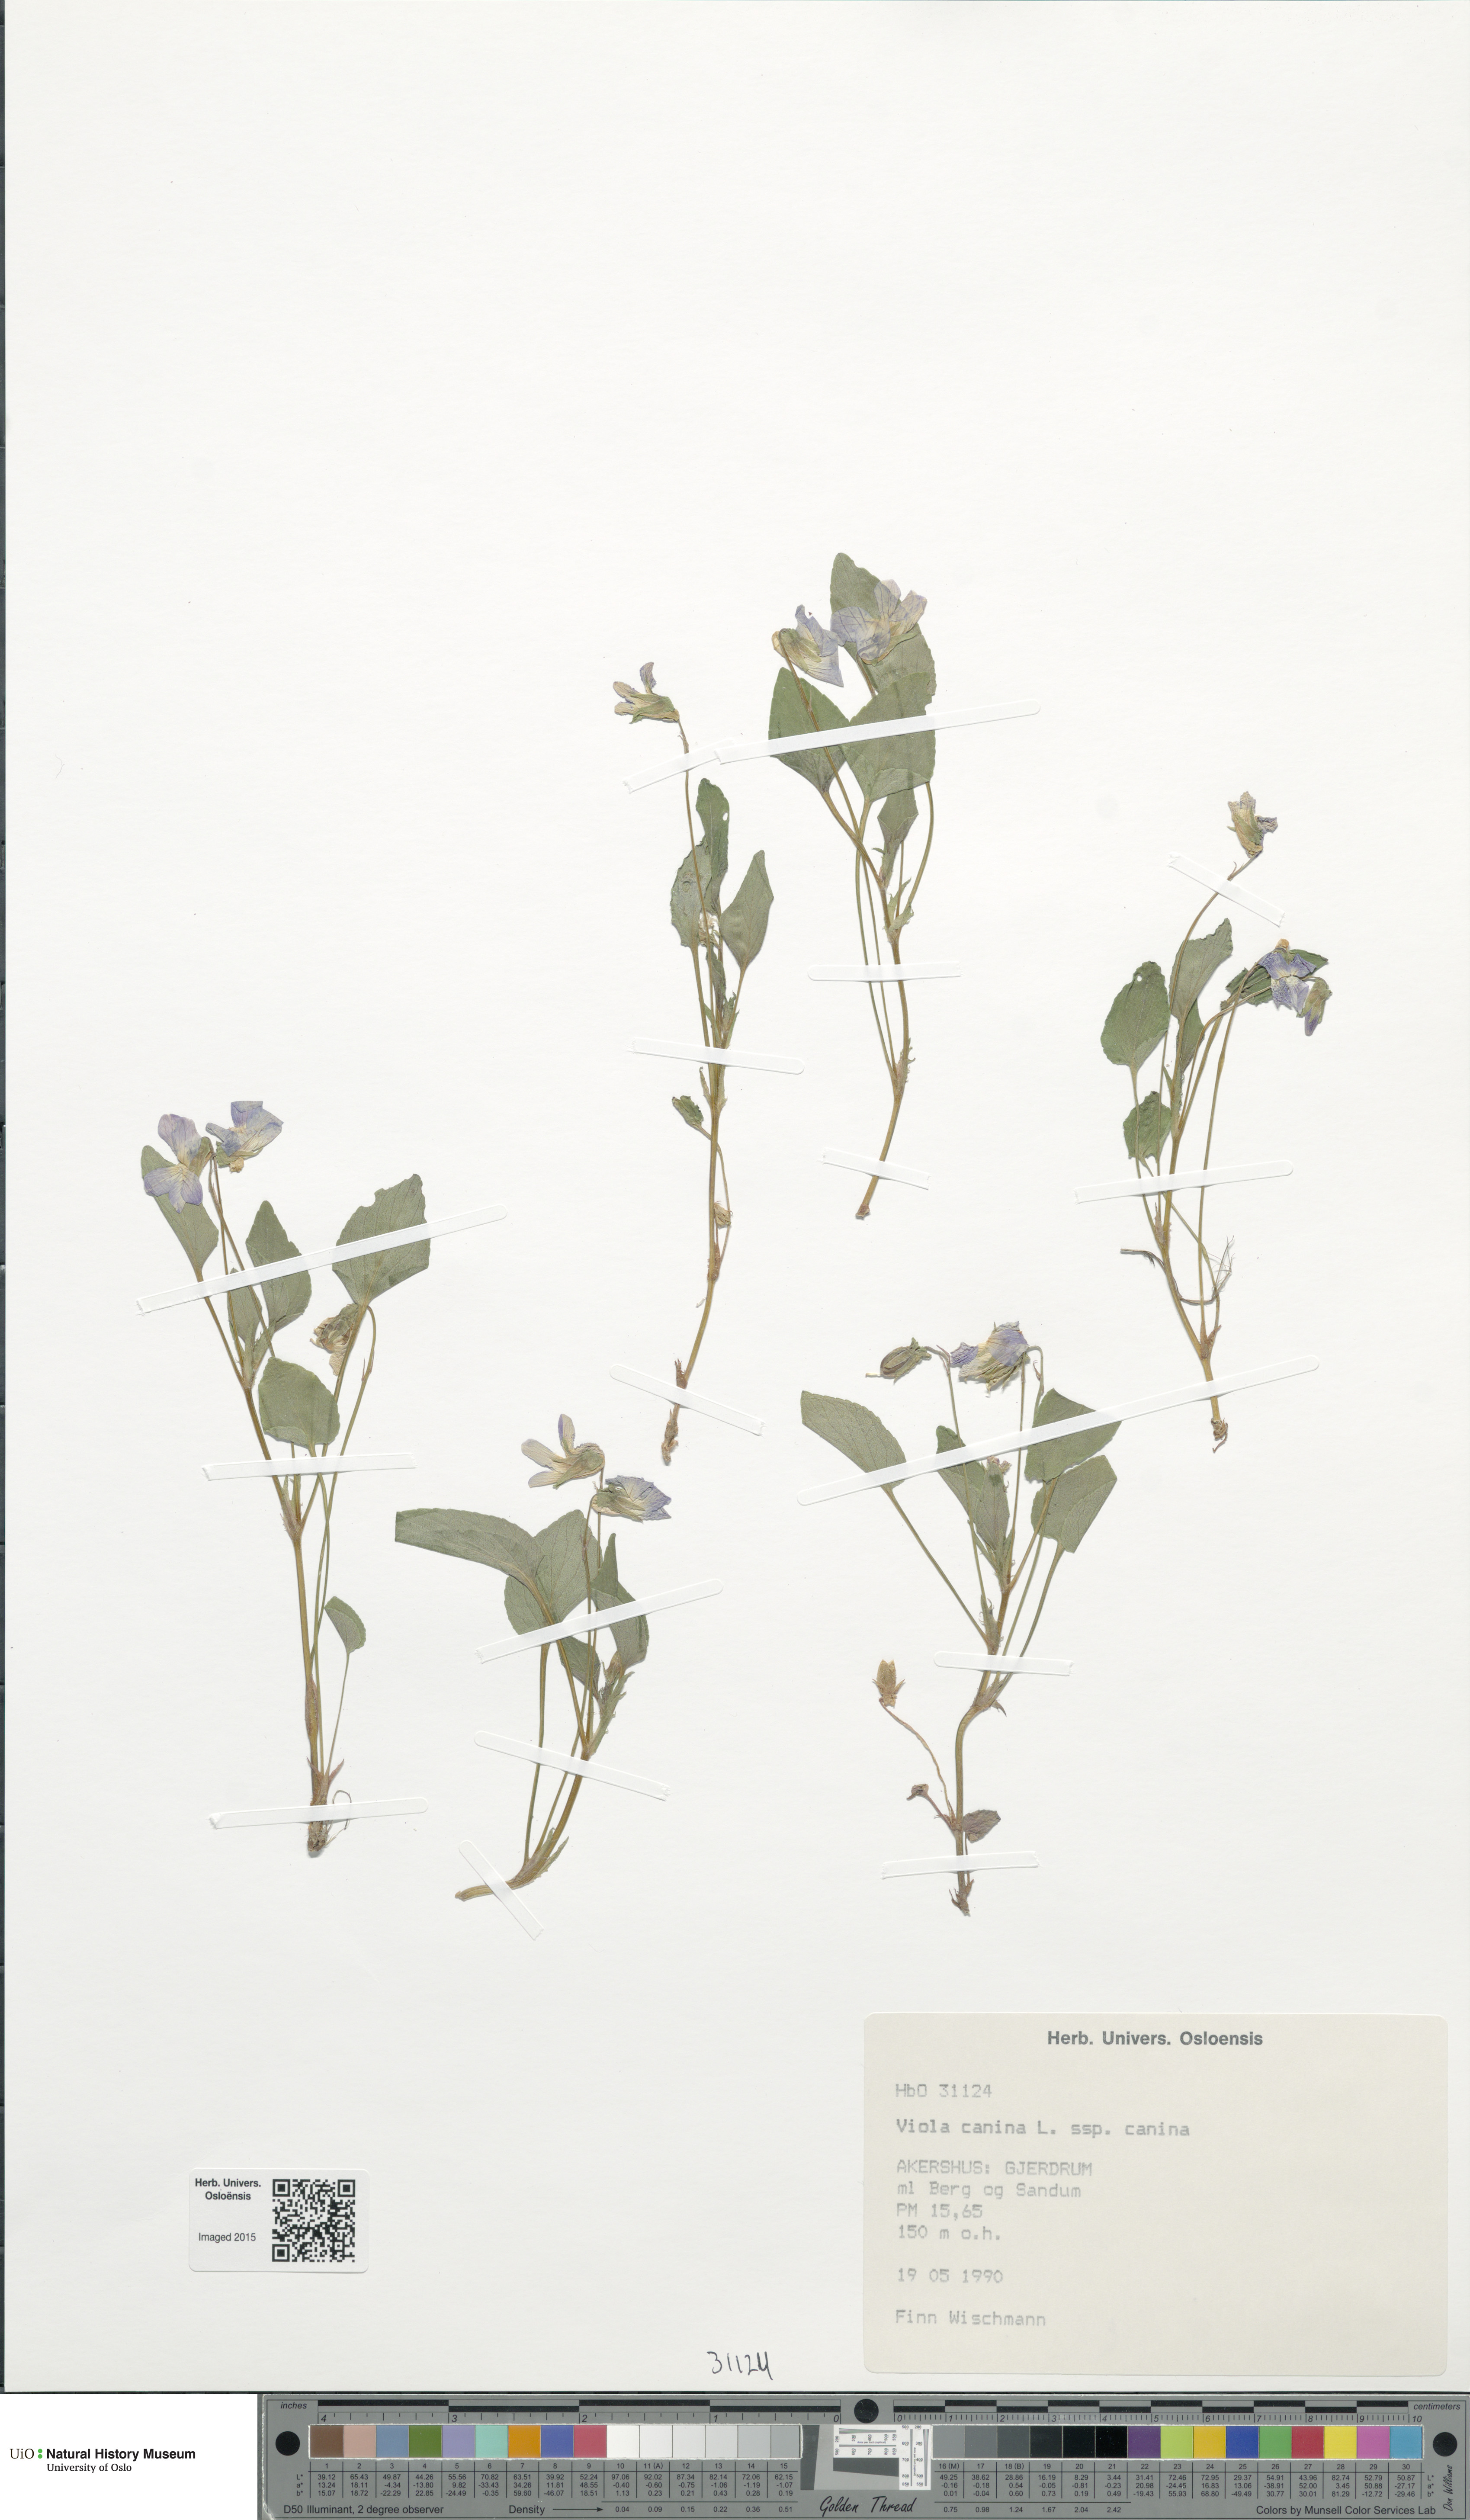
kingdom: Plantae
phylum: Tracheophyta
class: Magnoliopsida
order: Malpighiales
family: Violaceae
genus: Viola
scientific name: Viola ruppii
